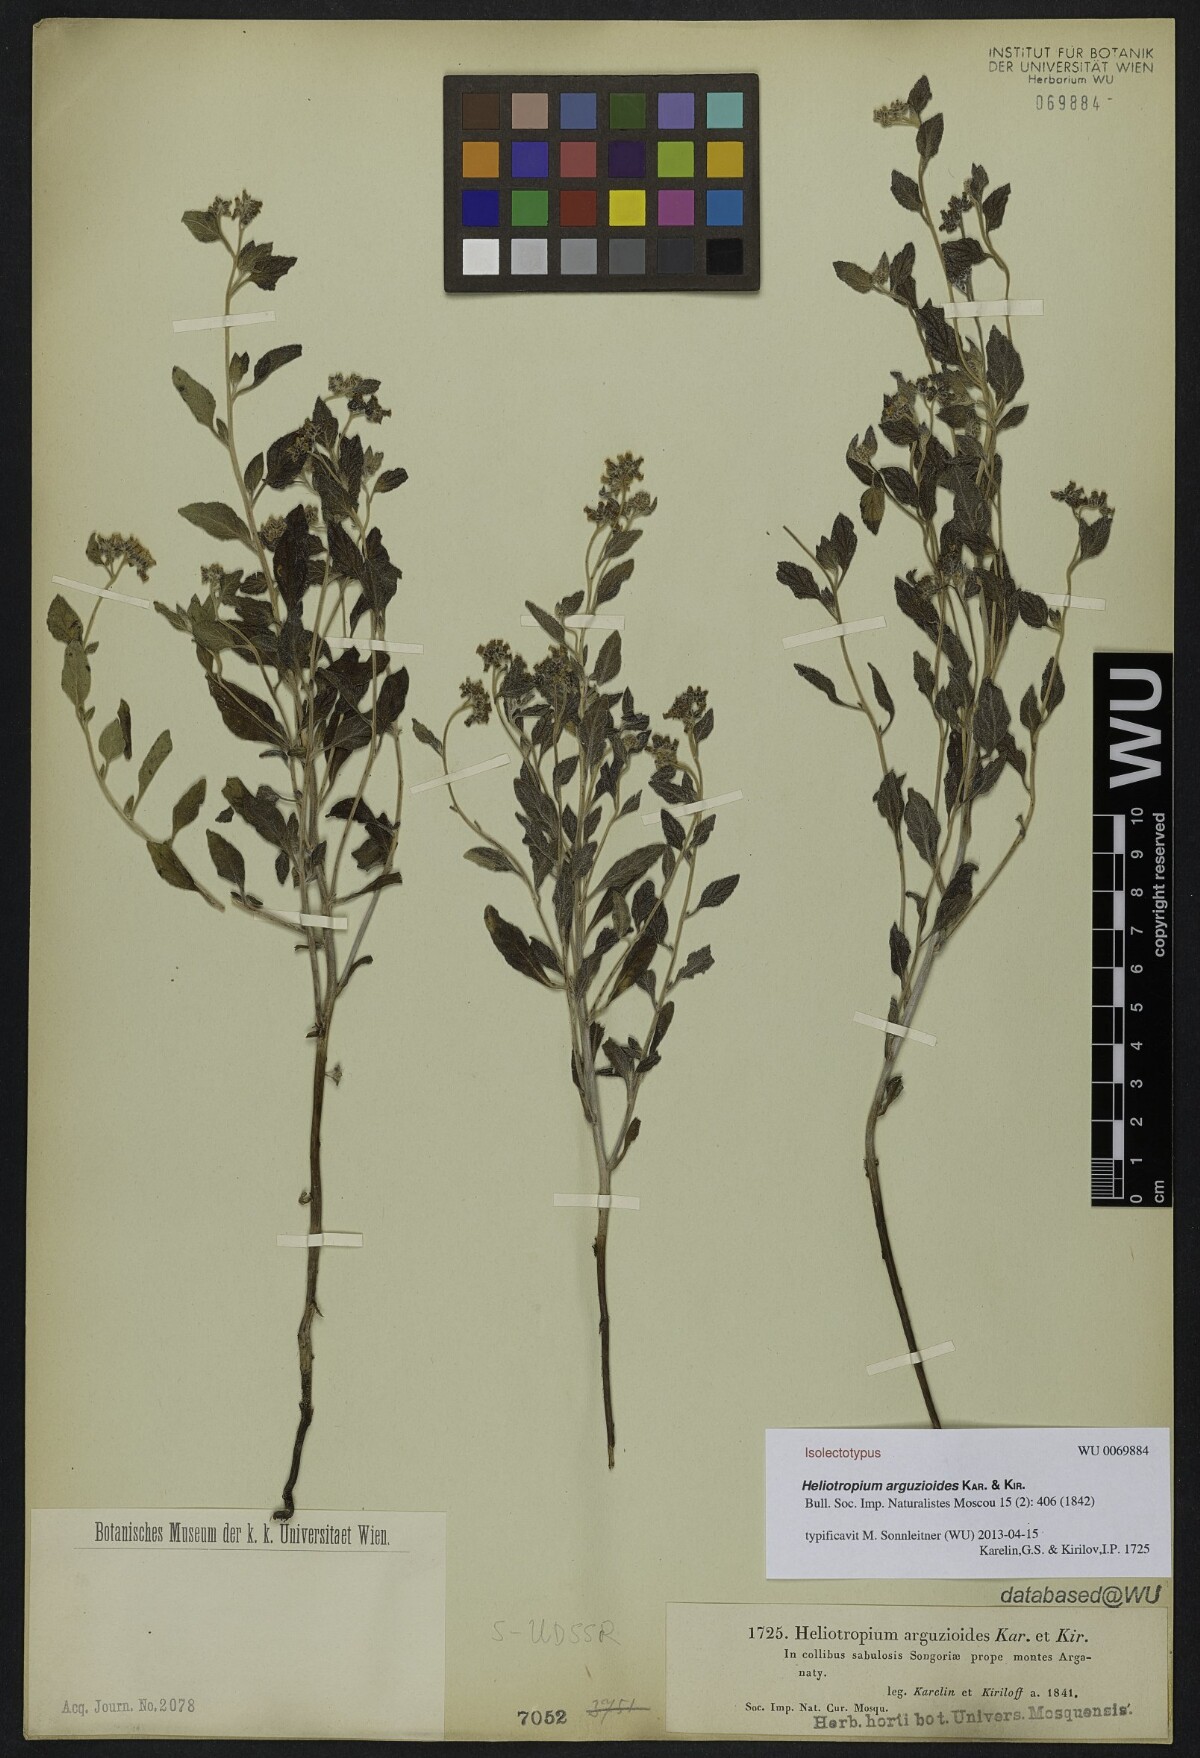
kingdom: Plantae
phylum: Tracheophyta
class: Magnoliopsida
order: Boraginales
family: Heliotropiaceae
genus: Heliotropium
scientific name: Heliotropium arguzioides
